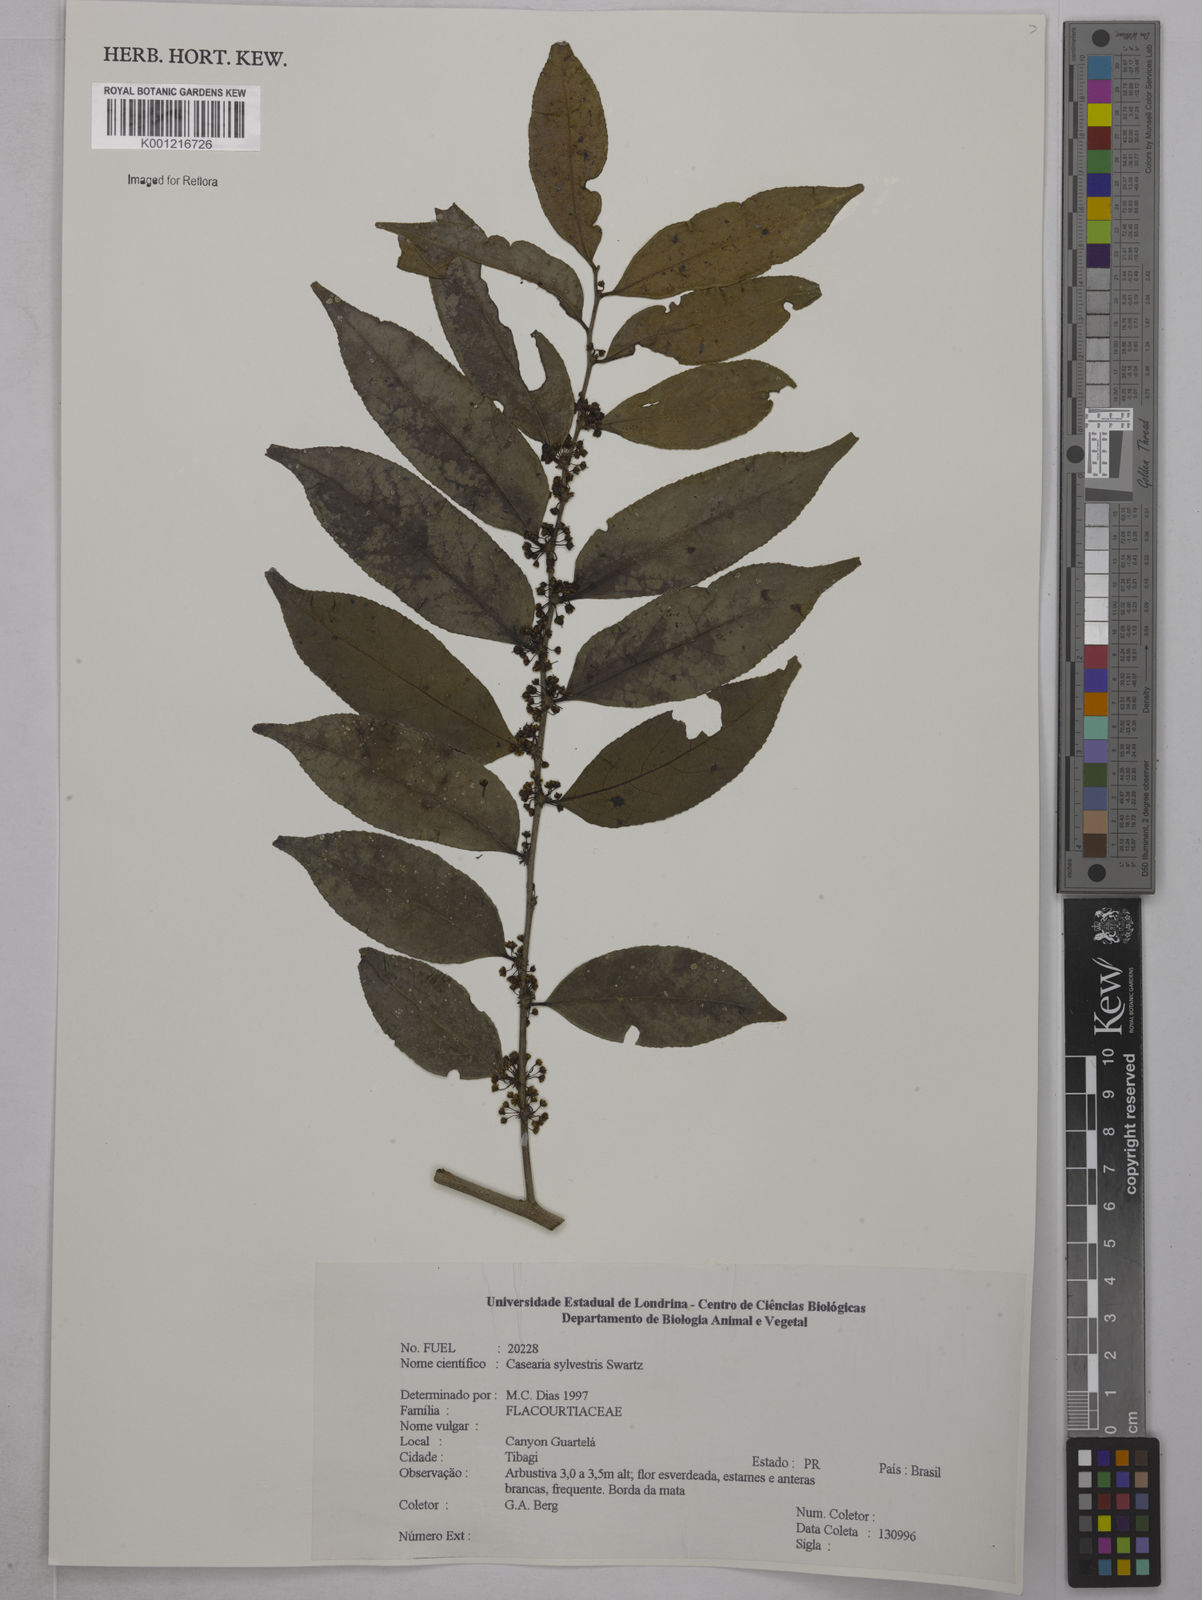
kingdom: Plantae
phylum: Tracheophyta
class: Magnoliopsida
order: Malpighiales
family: Salicaceae
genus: Casearia
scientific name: Casearia sylvestris
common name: Wild sage
